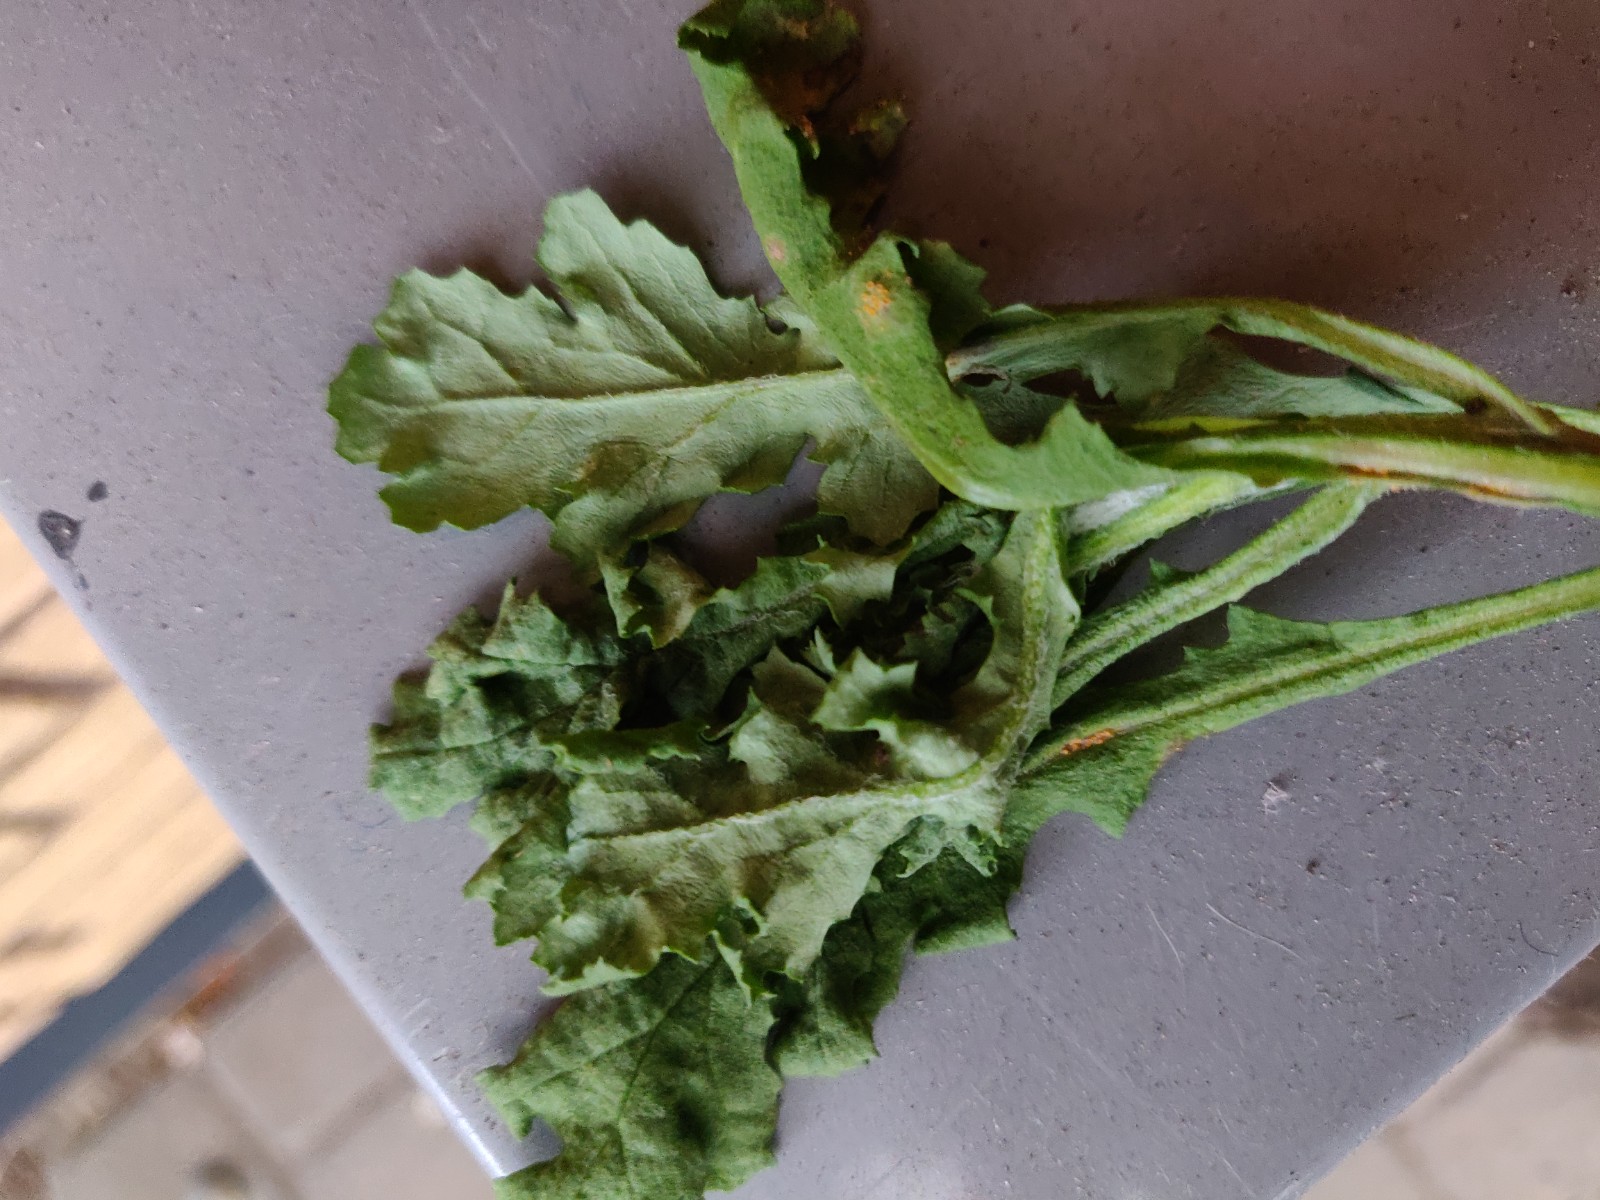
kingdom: Fungi
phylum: Basidiomycota
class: Pucciniomycetes
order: Pucciniales
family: Pucciniaceae
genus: Puccinia
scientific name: Puccinia lagenophorae
